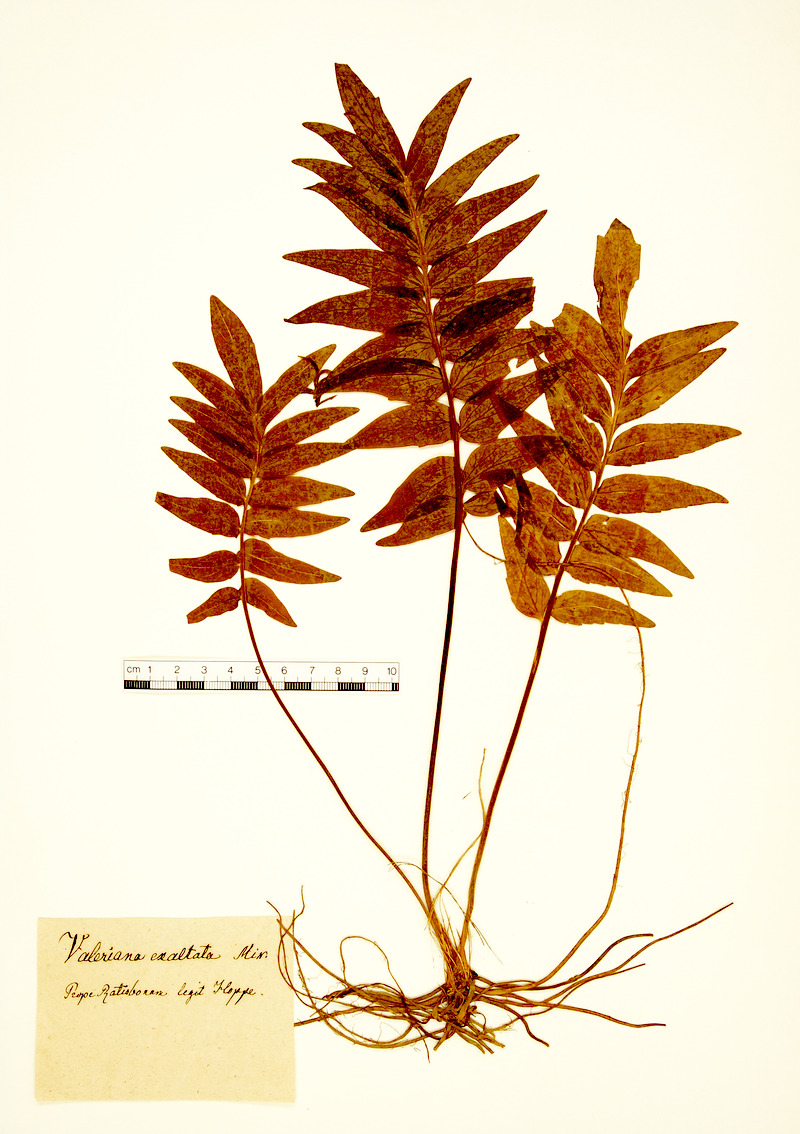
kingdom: Plantae
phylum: Tracheophyta
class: Magnoliopsida
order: Dipsacales
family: Caprifoliaceae
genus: Valeriana
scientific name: Valeriana officinalis
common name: Common valerian
